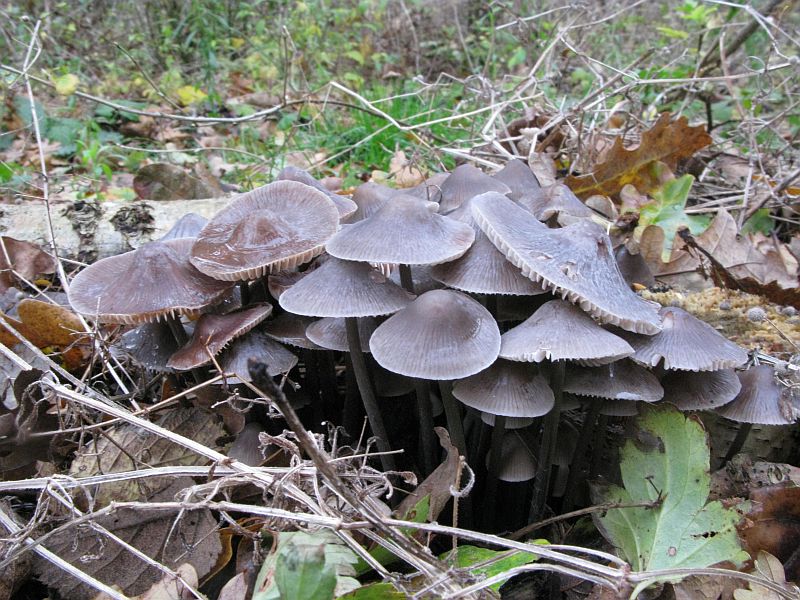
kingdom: Fungi
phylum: Basidiomycota
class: Agaricomycetes
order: Agaricales
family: Mycenaceae
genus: Mycena
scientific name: Mycena polygramma
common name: mangestribet huesvamp
